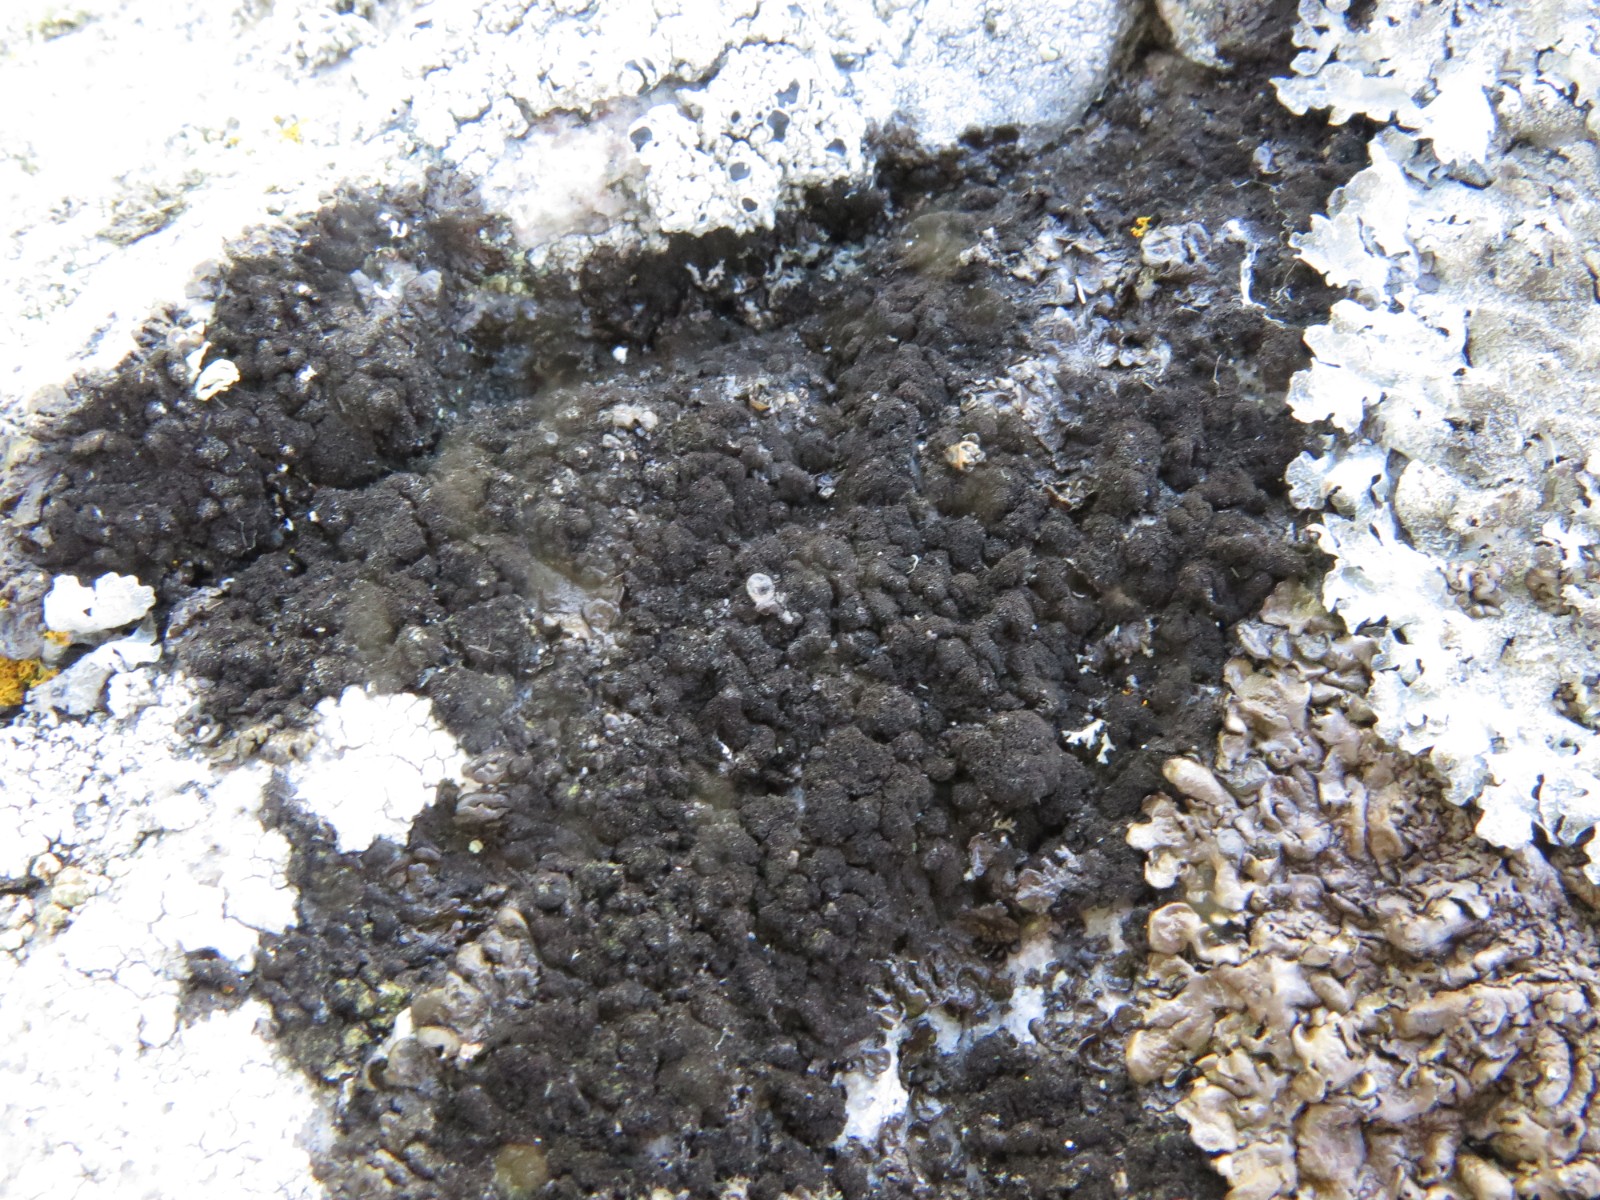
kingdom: Fungi
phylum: Ascomycota
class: Lecanoromycetes
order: Lecanorales
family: Parmeliaceae
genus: Melanelixia
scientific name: Melanelixia fuliginosa
